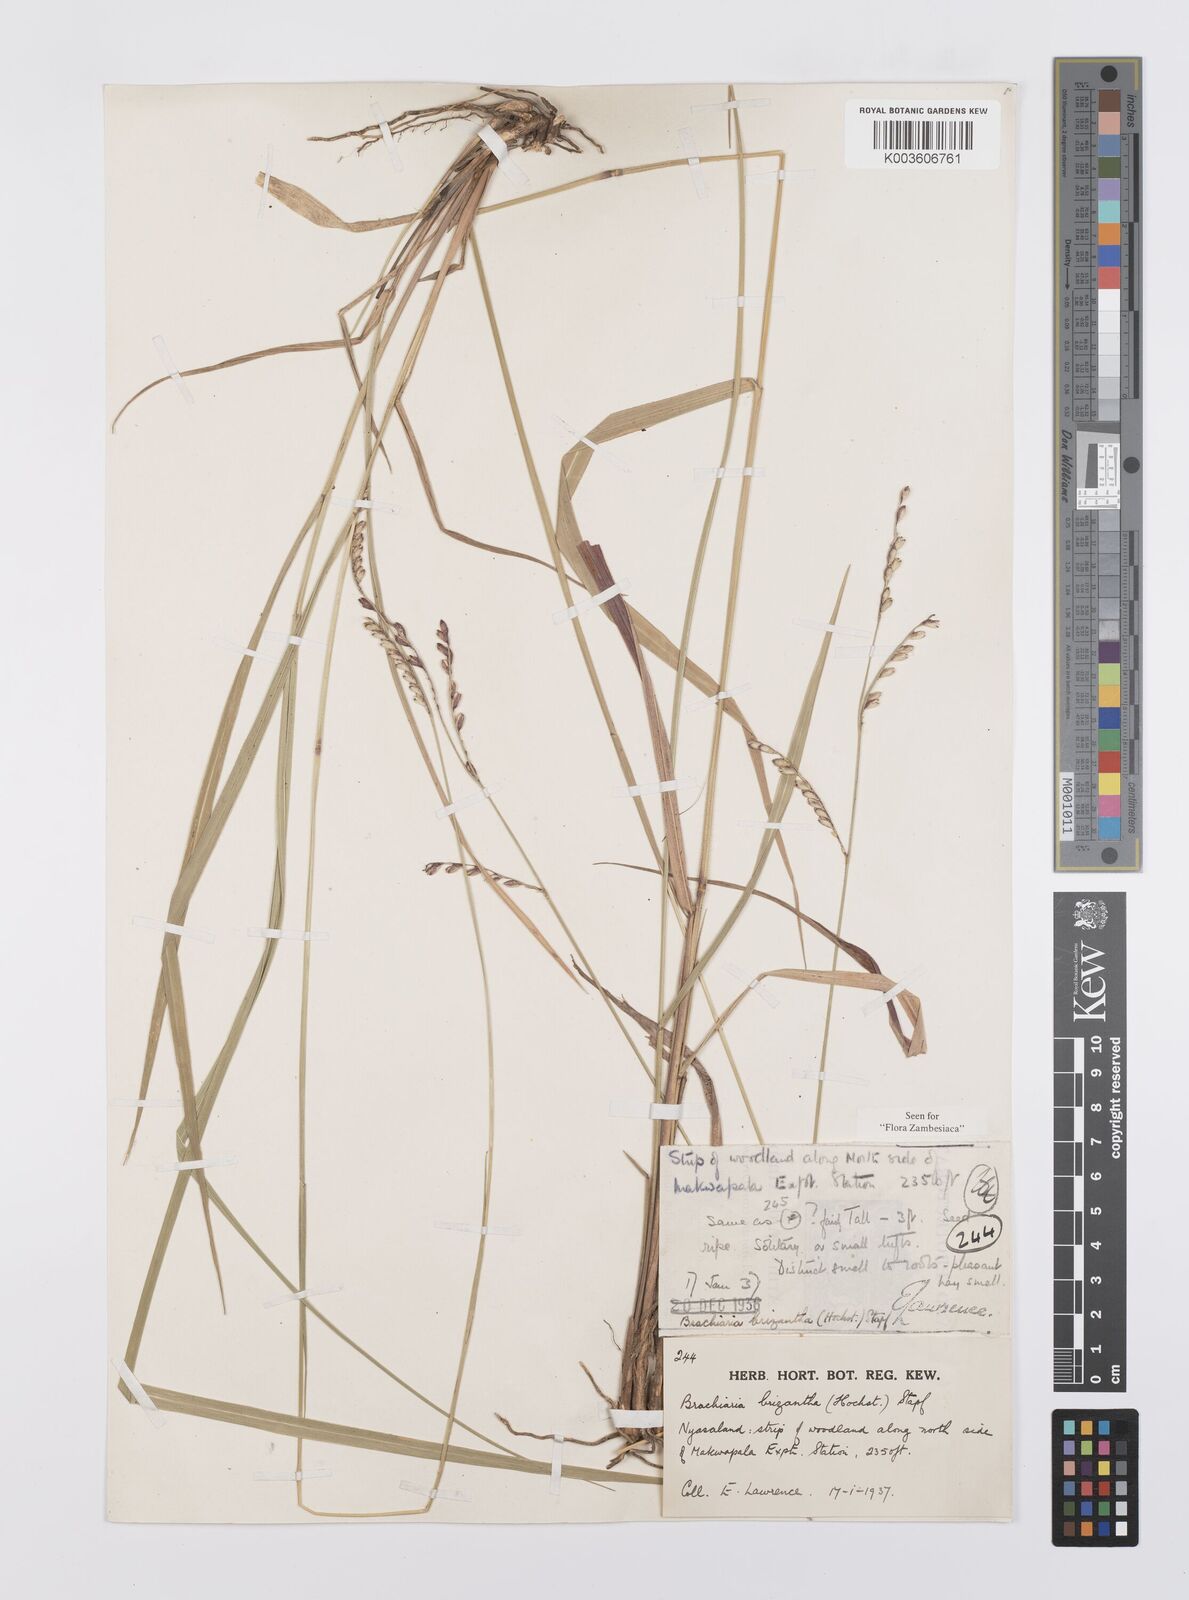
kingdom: Plantae
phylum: Tracheophyta
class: Liliopsida
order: Poales
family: Poaceae
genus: Urochloa
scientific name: Urochloa brizantha
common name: Palisade signalgrass
